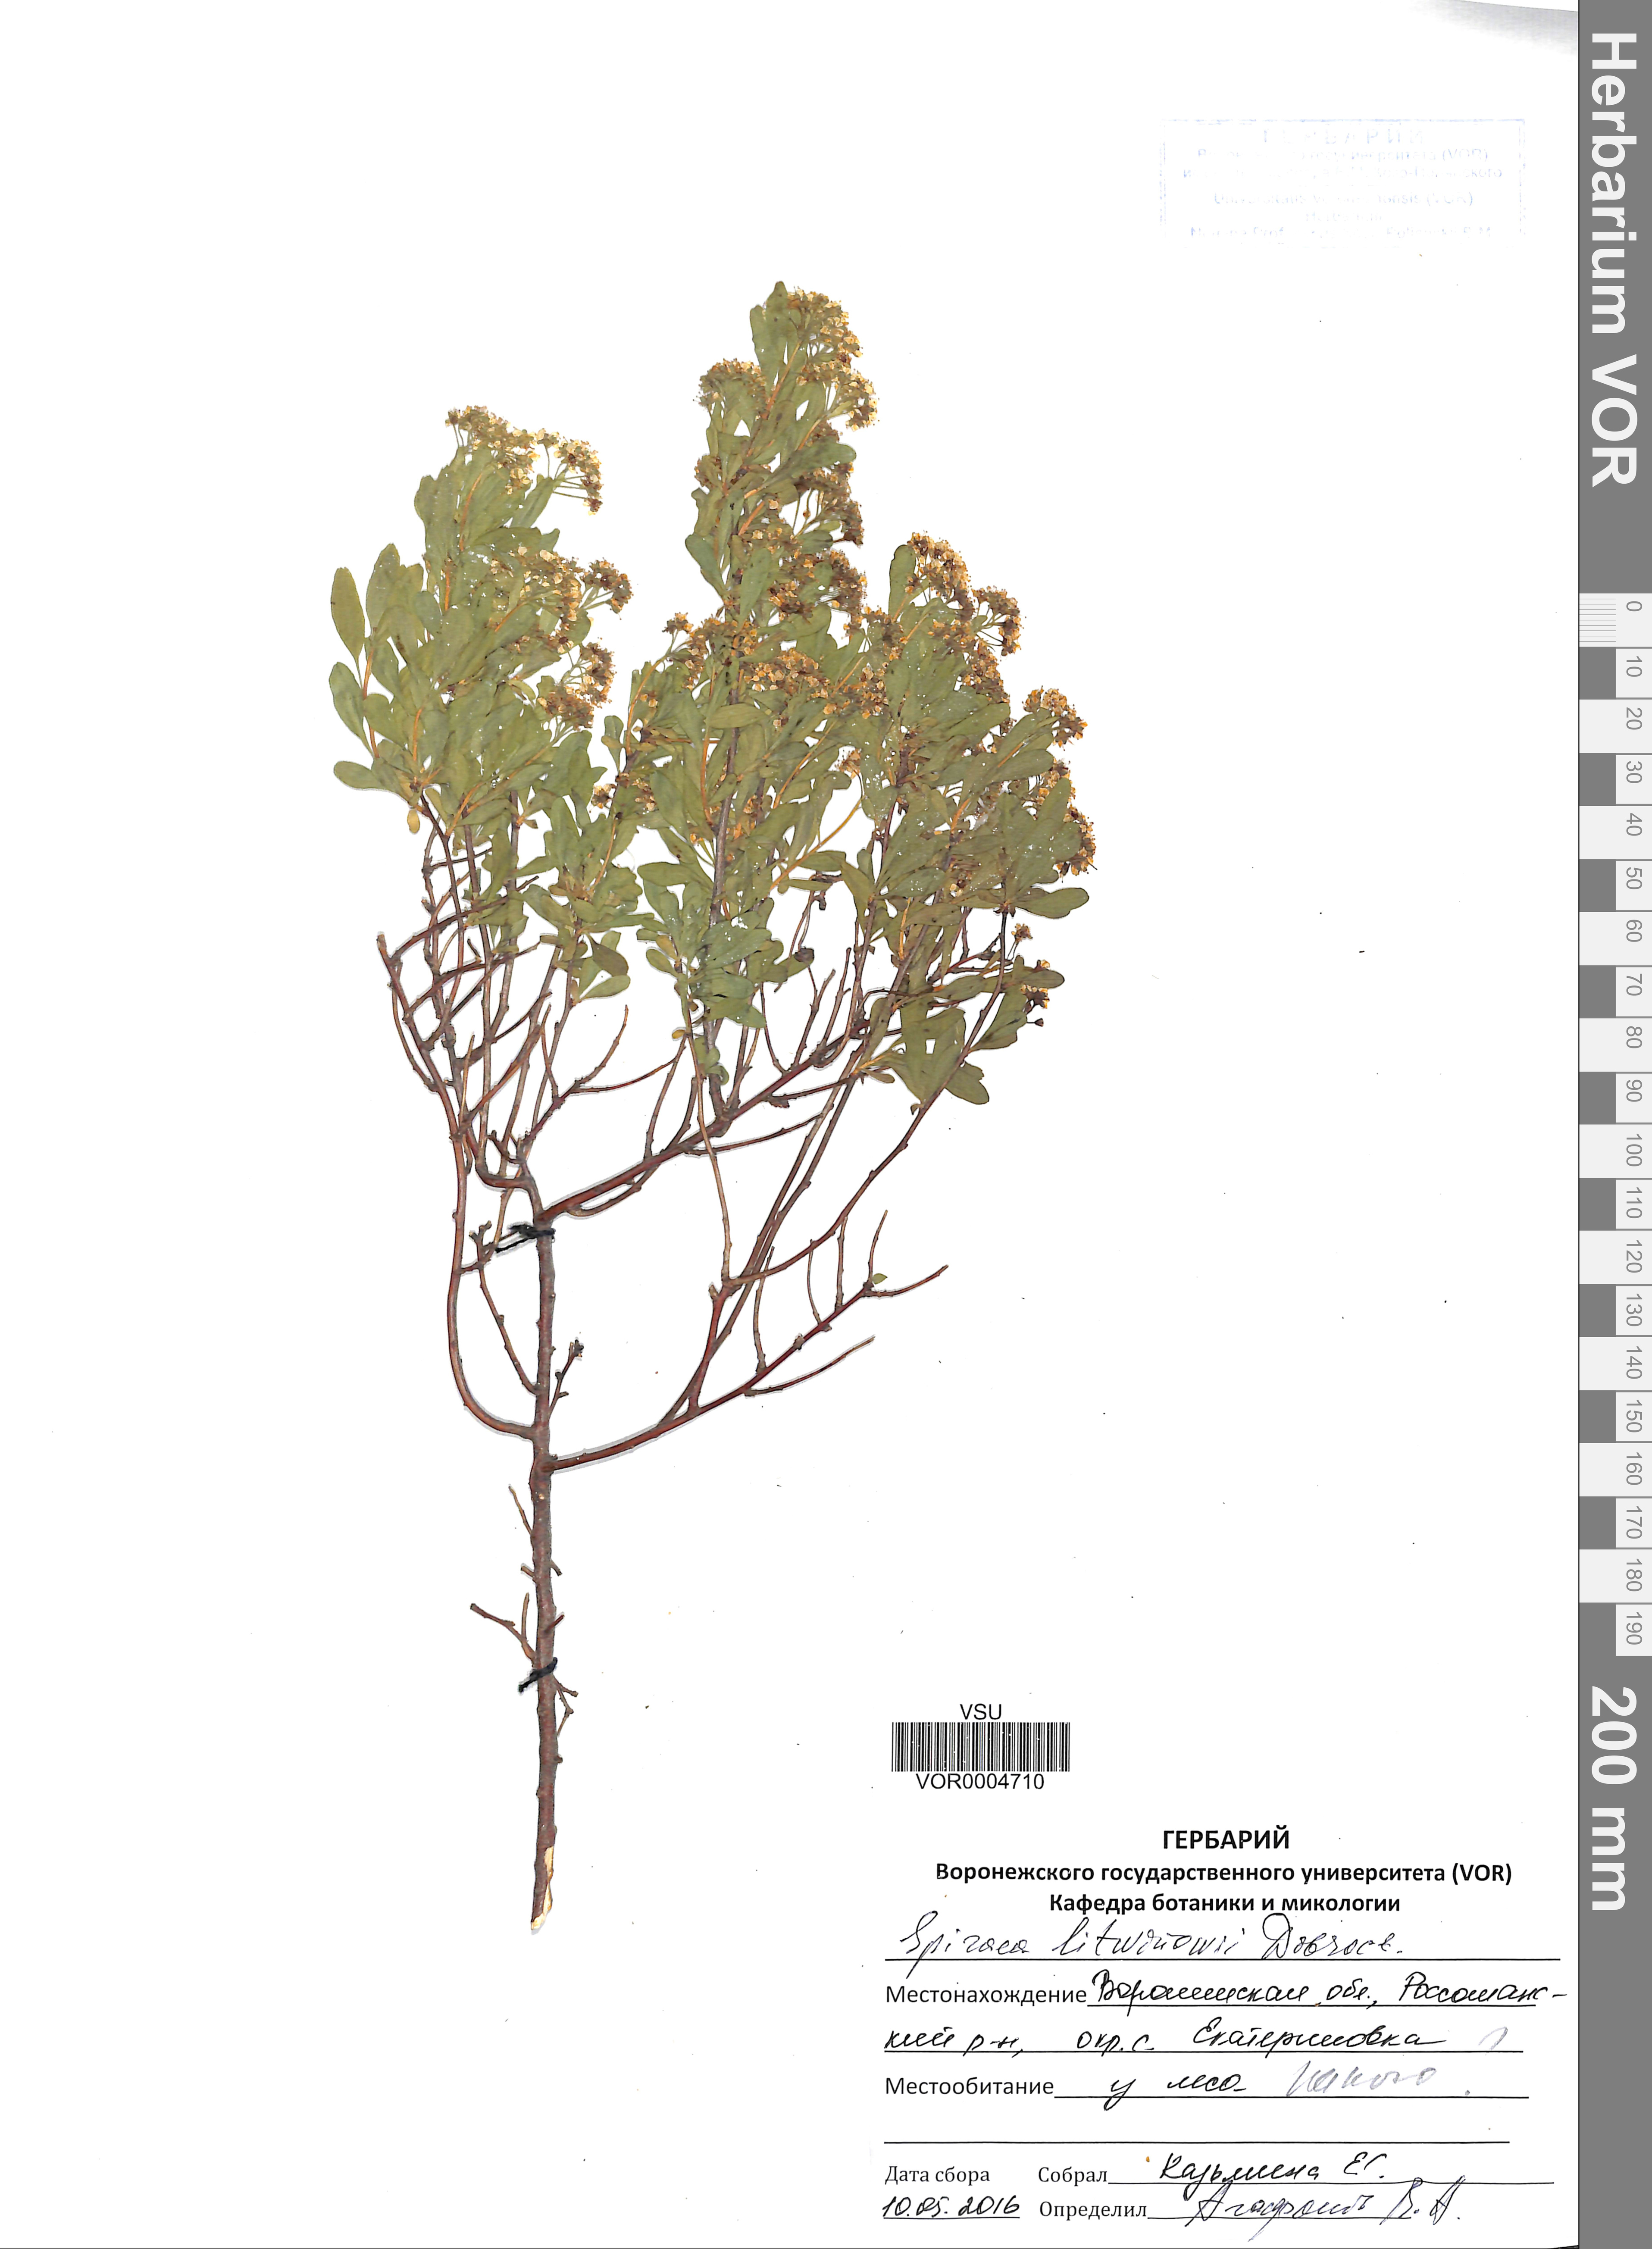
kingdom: Plantae
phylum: Tracheophyta
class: Magnoliopsida
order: Rosales
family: Rosaceae
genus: Spiraea
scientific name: Spiraea crenata
